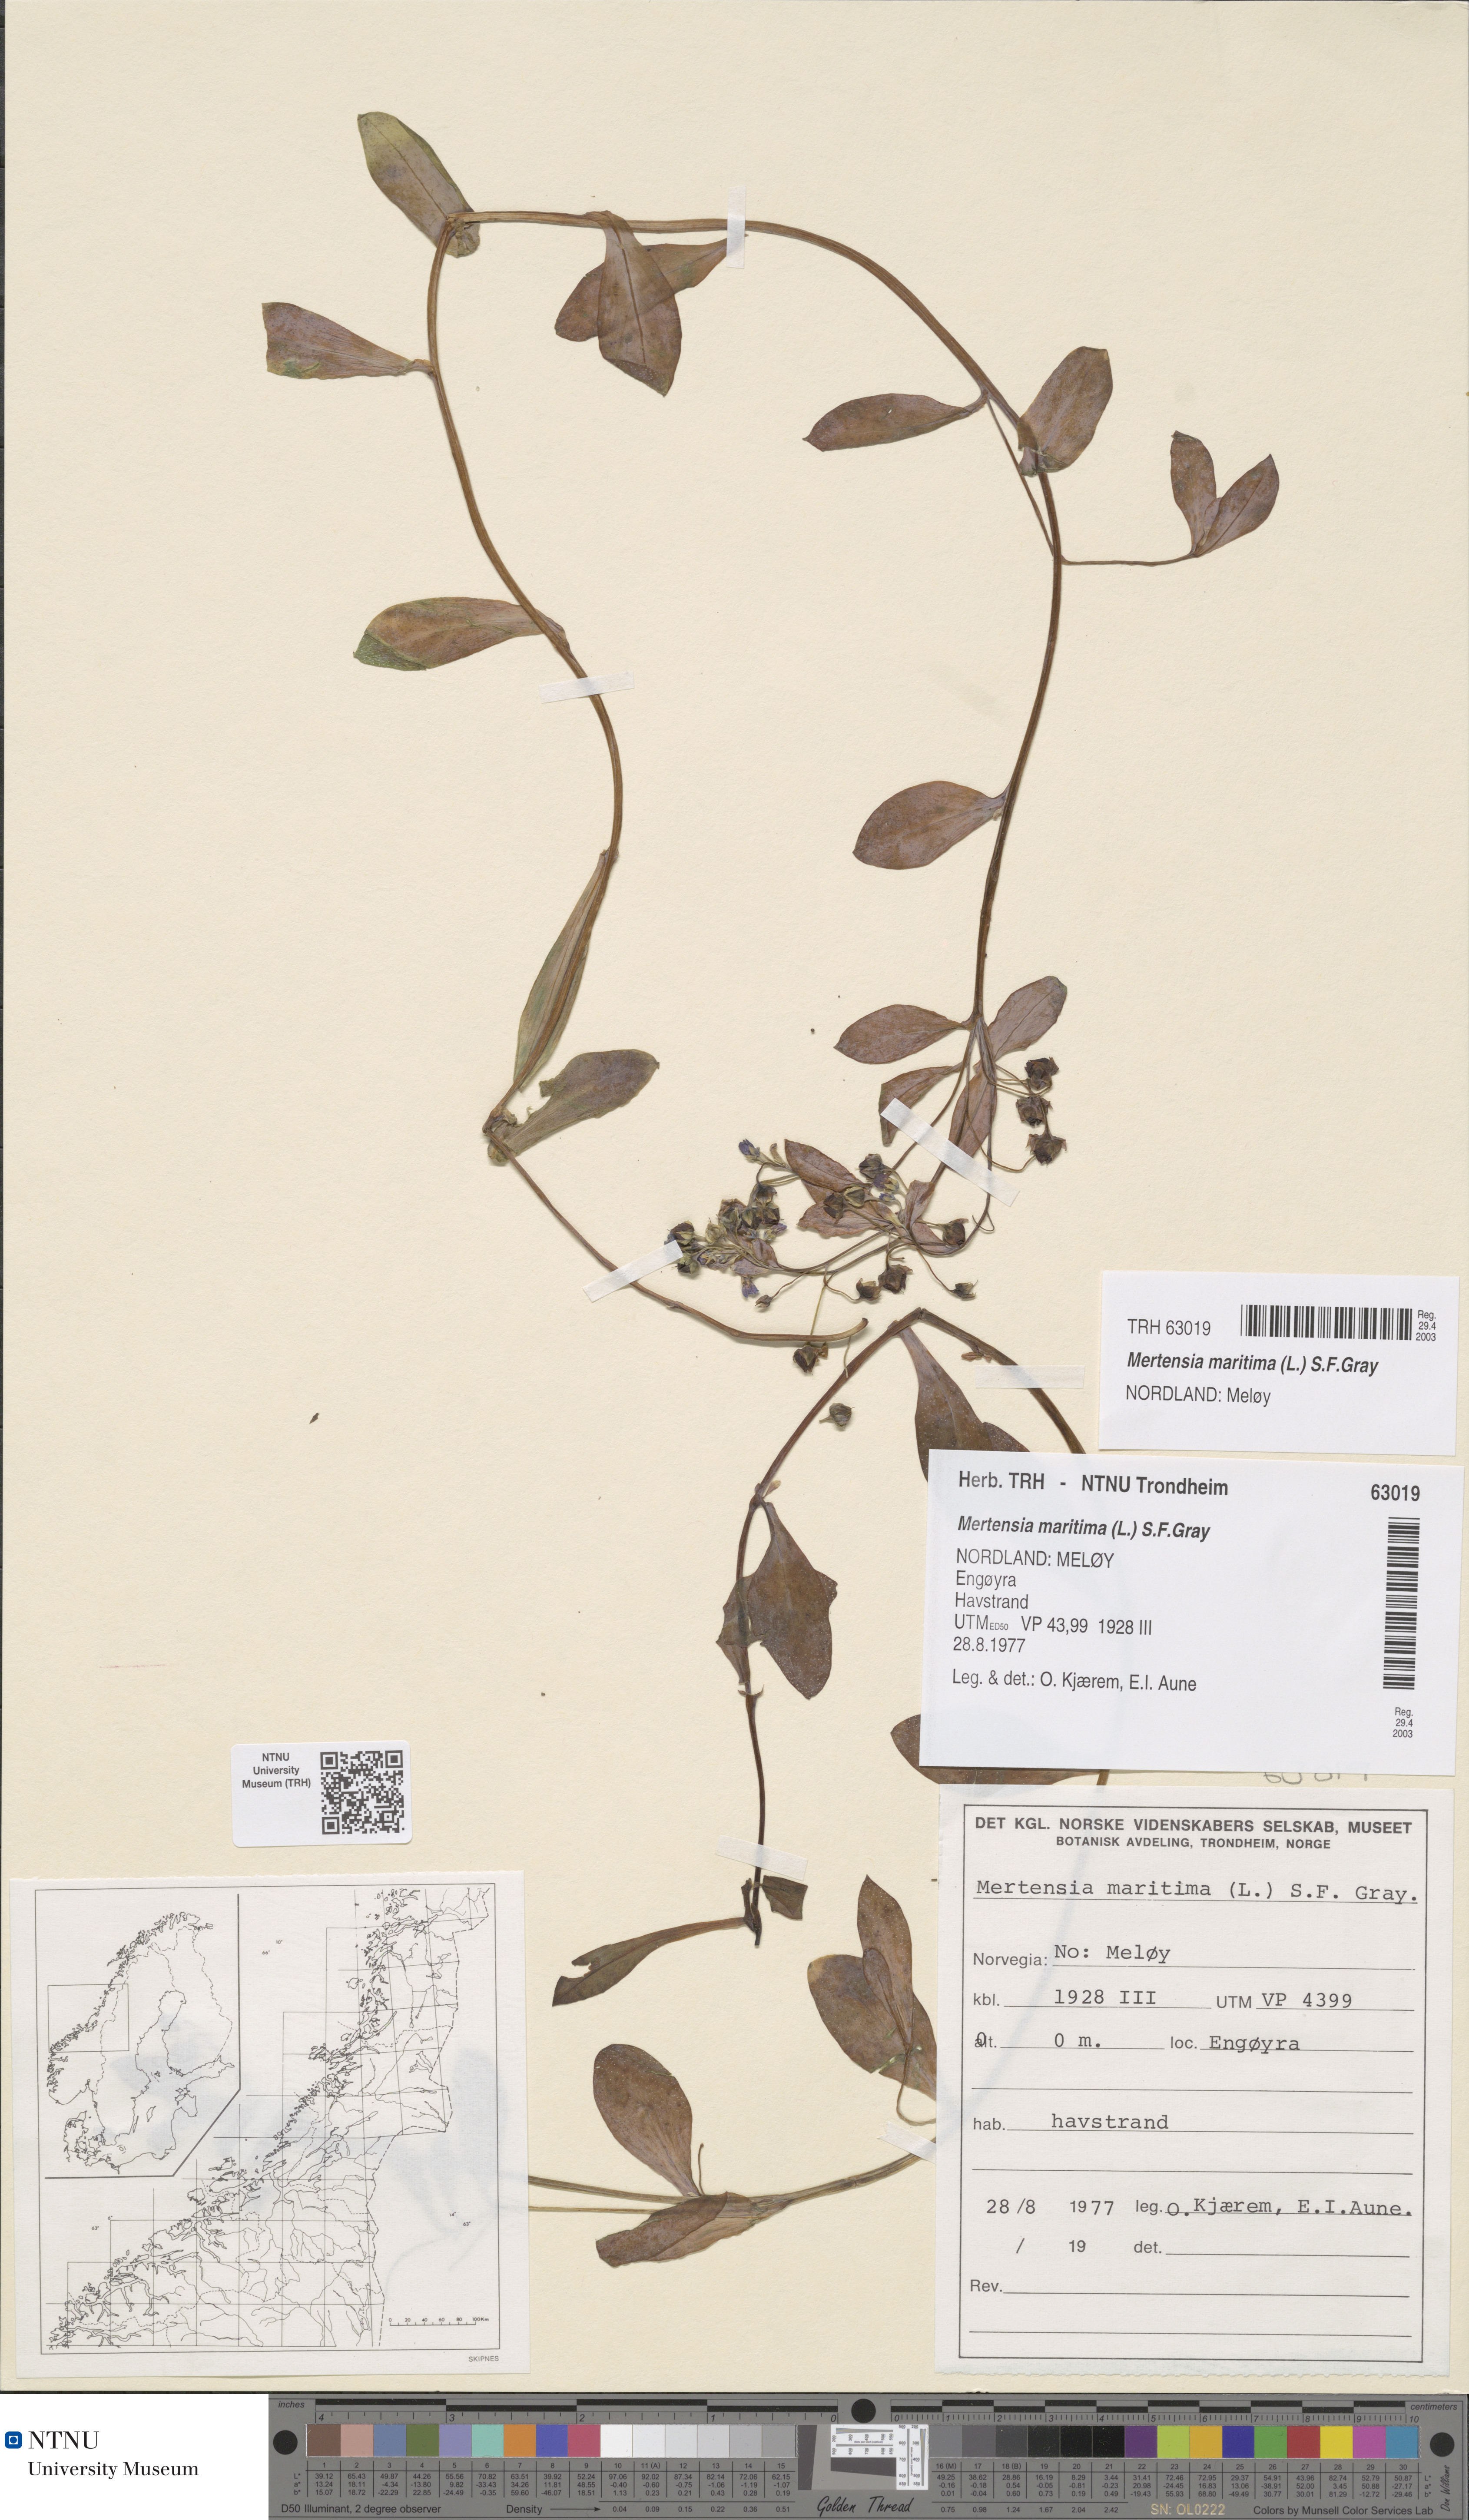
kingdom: Plantae
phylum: Tracheophyta
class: Magnoliopsida
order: Boraginales
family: Boraginaceae
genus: Mertensia
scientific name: Mertensia maritima
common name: Oysterplant
